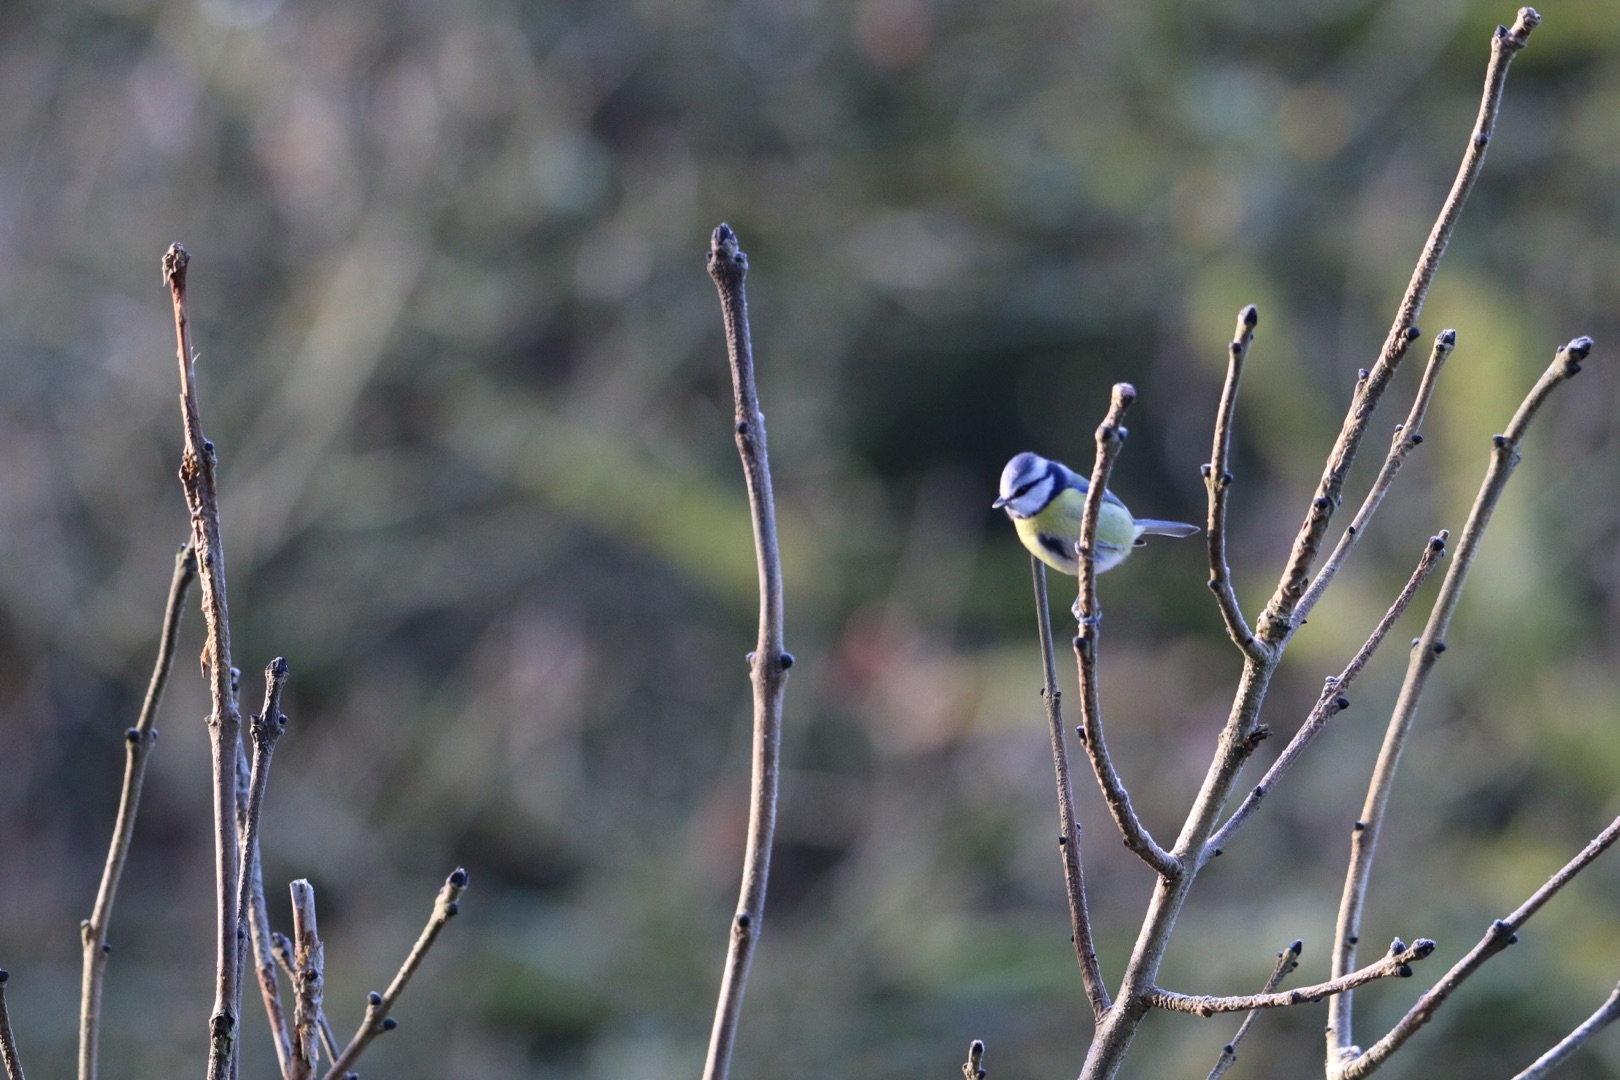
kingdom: Animalia
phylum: Chordata
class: Aves
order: Passeriformes
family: Paridae
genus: Cyanistes
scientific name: Cyanistes caeruleus
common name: Blåmejse
